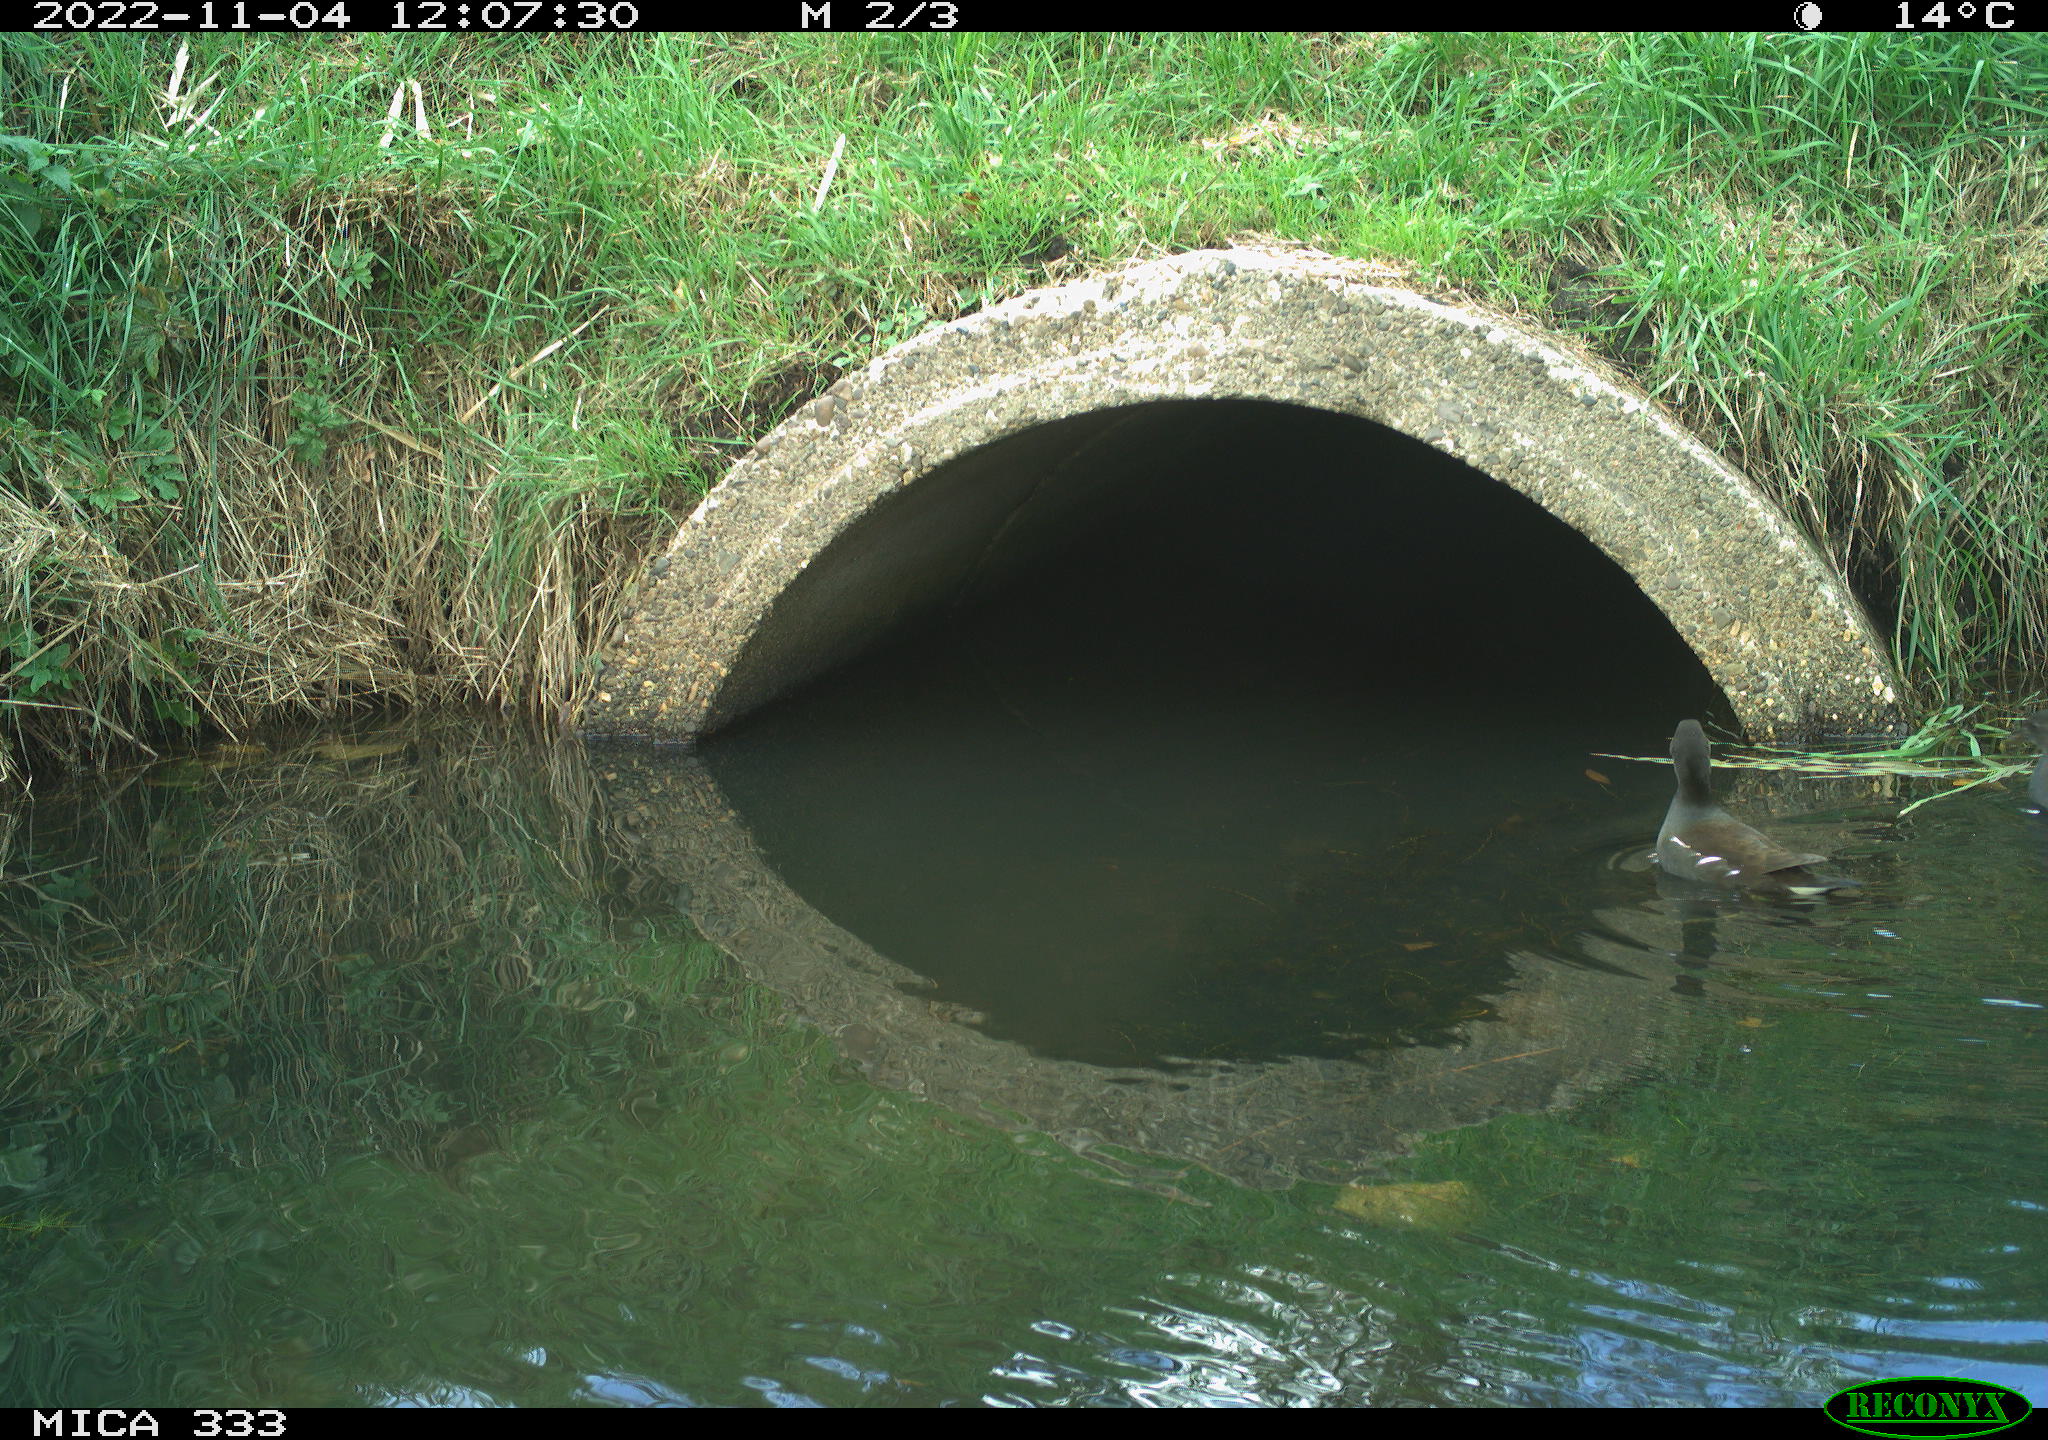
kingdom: Animalia
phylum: Chordata
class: Aves
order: Gruiformes
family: Rallidae
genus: Gallinula
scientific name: Gallinula chloropus
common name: Common moorhen
